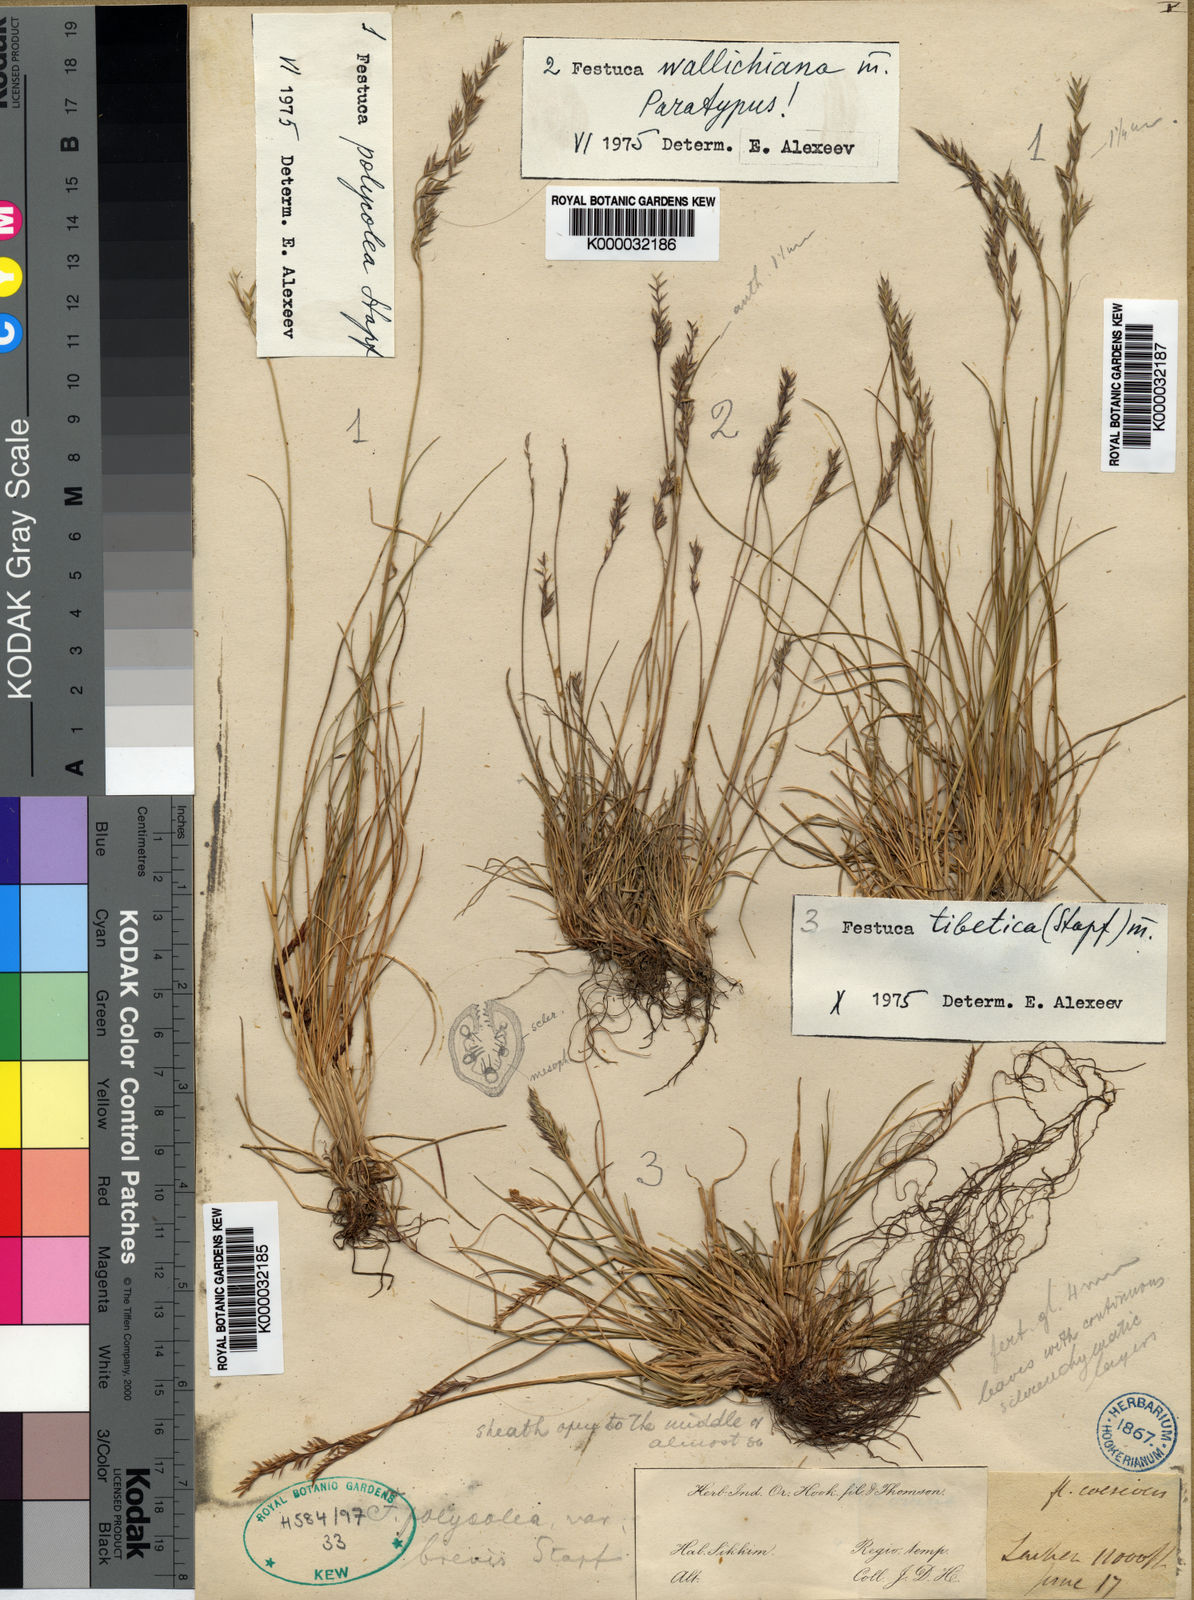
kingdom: Plantae
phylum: Tracheophyta
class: Liliopsida
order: Poales
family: Poaceae
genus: Festuca
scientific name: Festuca polycolea
